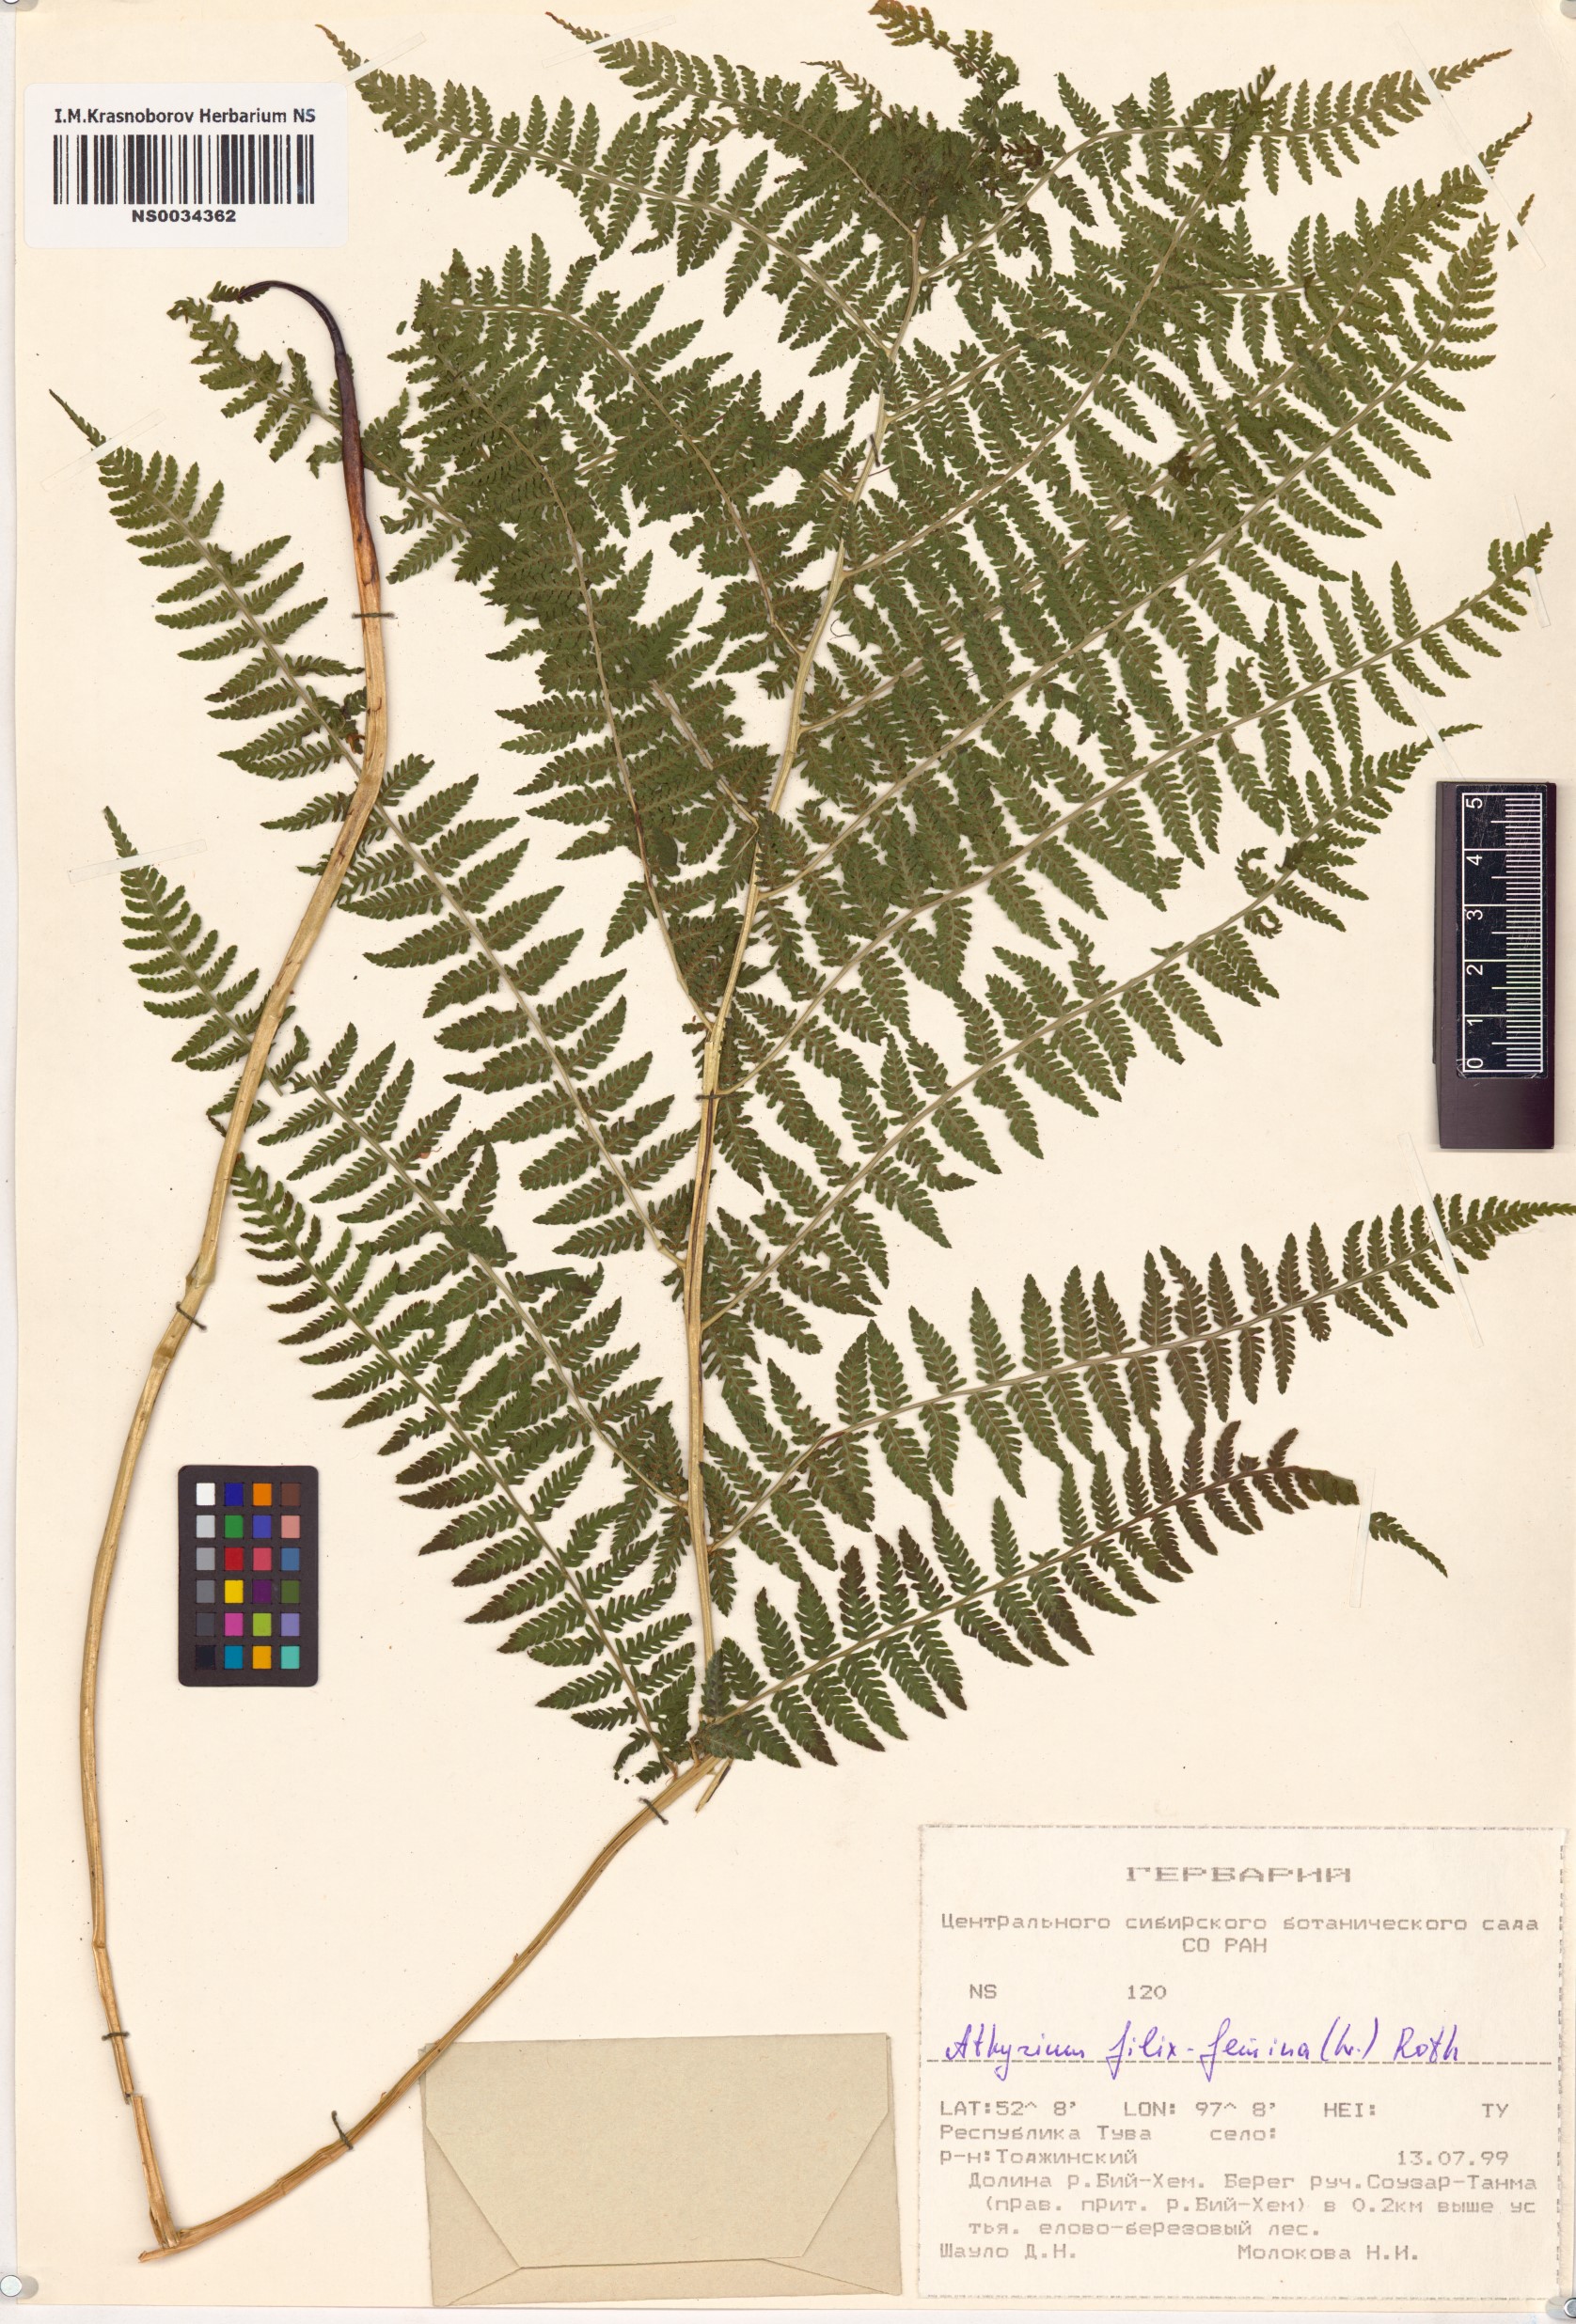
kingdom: Plantae
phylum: Tracheophyta
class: Polypodiopsida
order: Polypodiales
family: Athyriaceae
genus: Athyrium
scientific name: Athyrium filix-femina
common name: Lady fern
